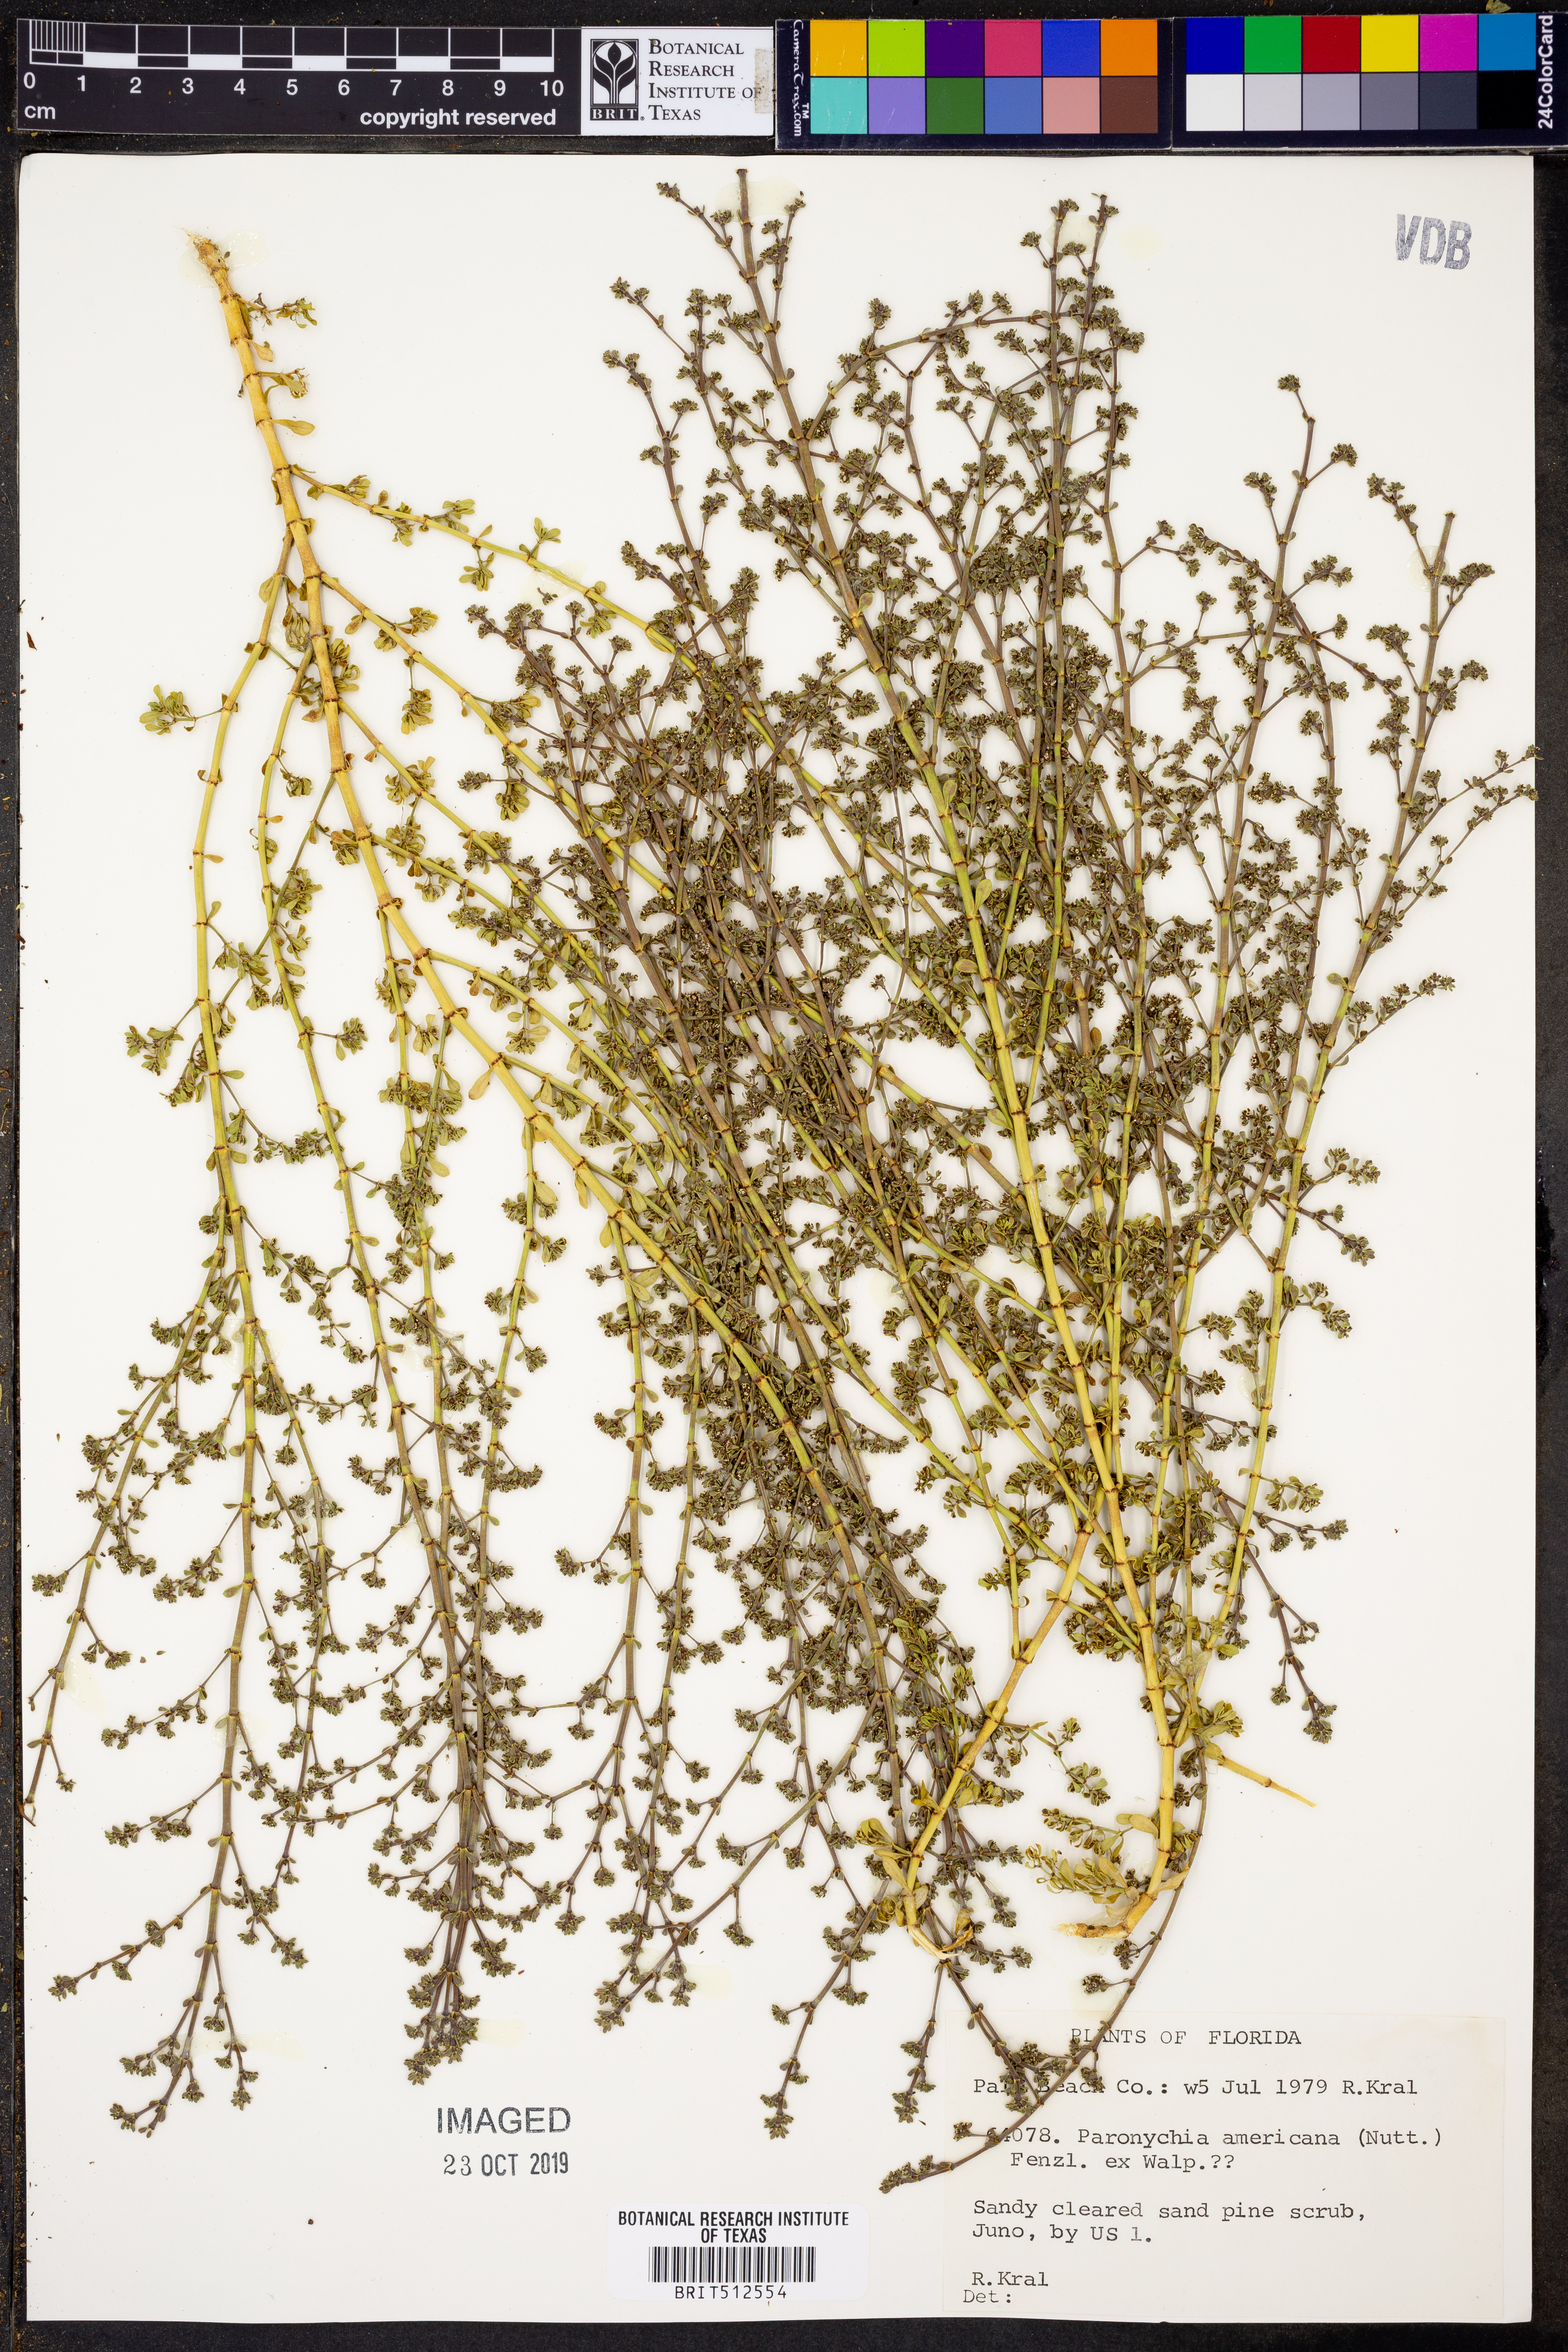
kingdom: Plantae
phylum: Tracheophyta
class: Magnoliopsida
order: Caryophyllales
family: Caryophyllaceae
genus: Paronychia
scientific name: Paronychia americana
